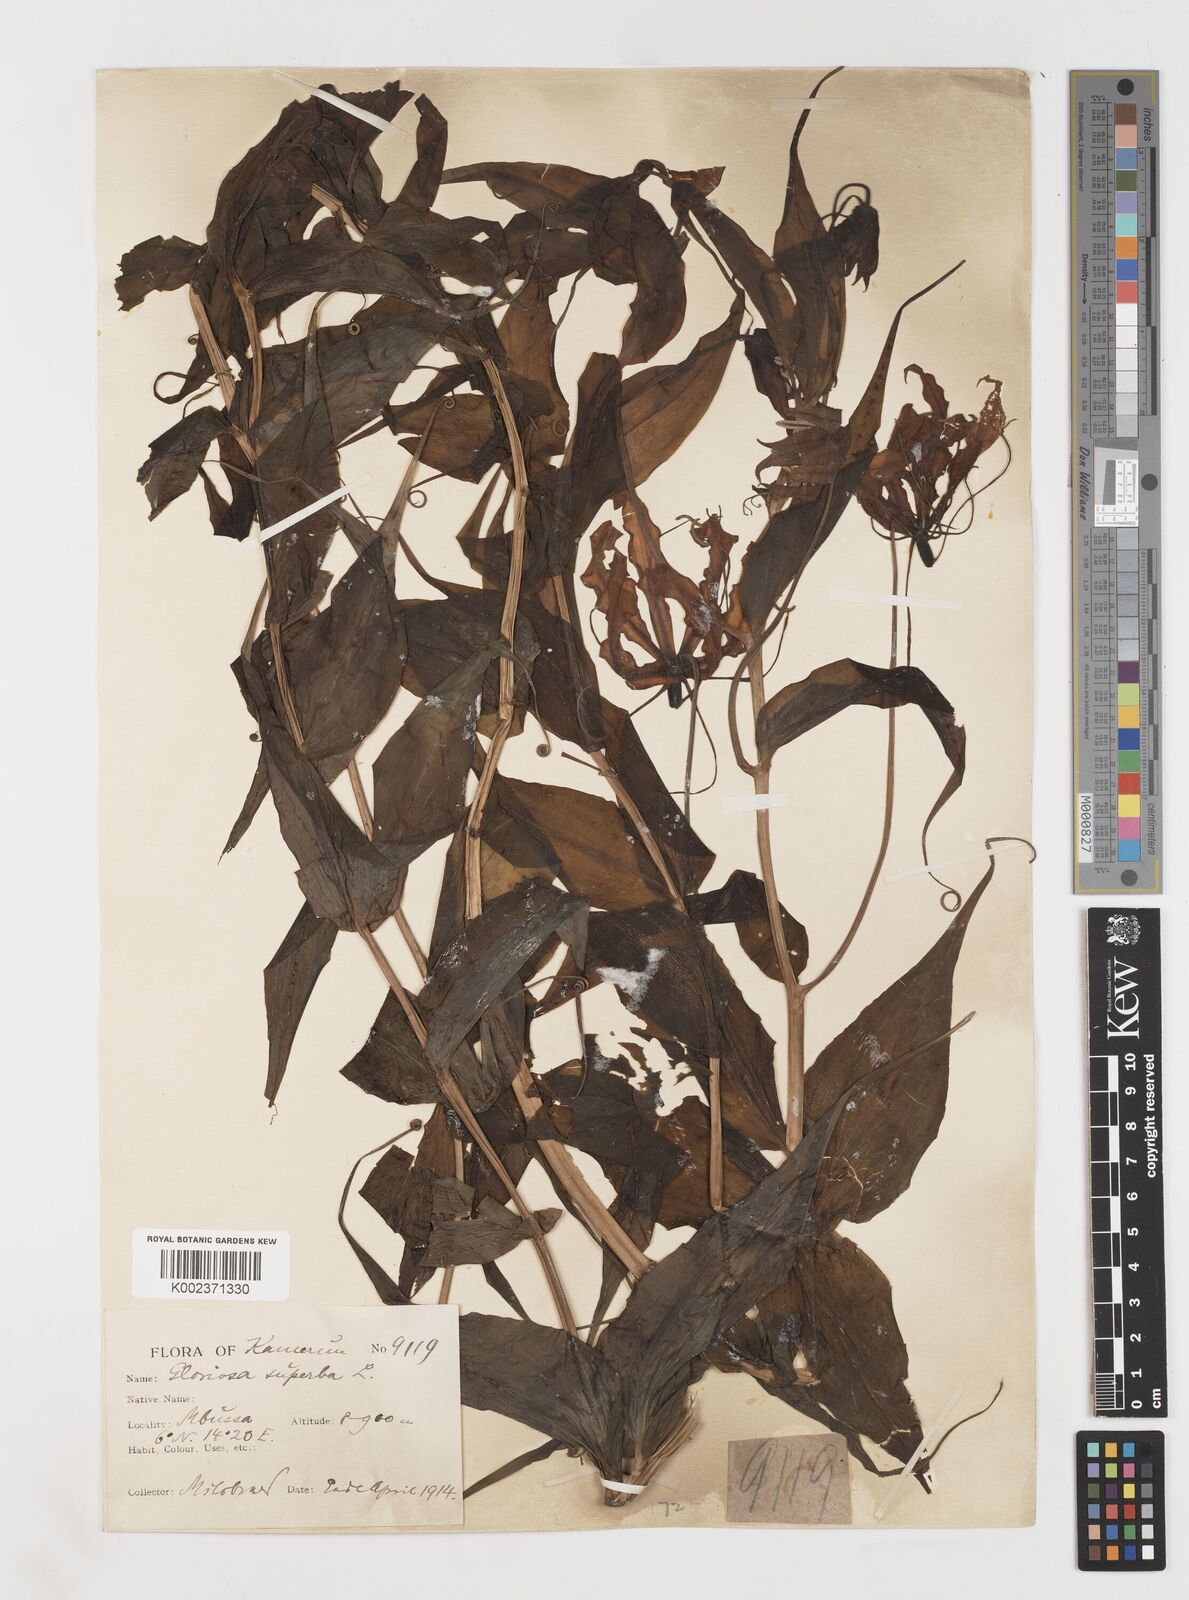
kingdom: Plantae
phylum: Tracheophyta
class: Liliopsida
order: Liliales
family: Colchicaceae
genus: Gloriosa
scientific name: Gloriosa superba
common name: Flame lily
